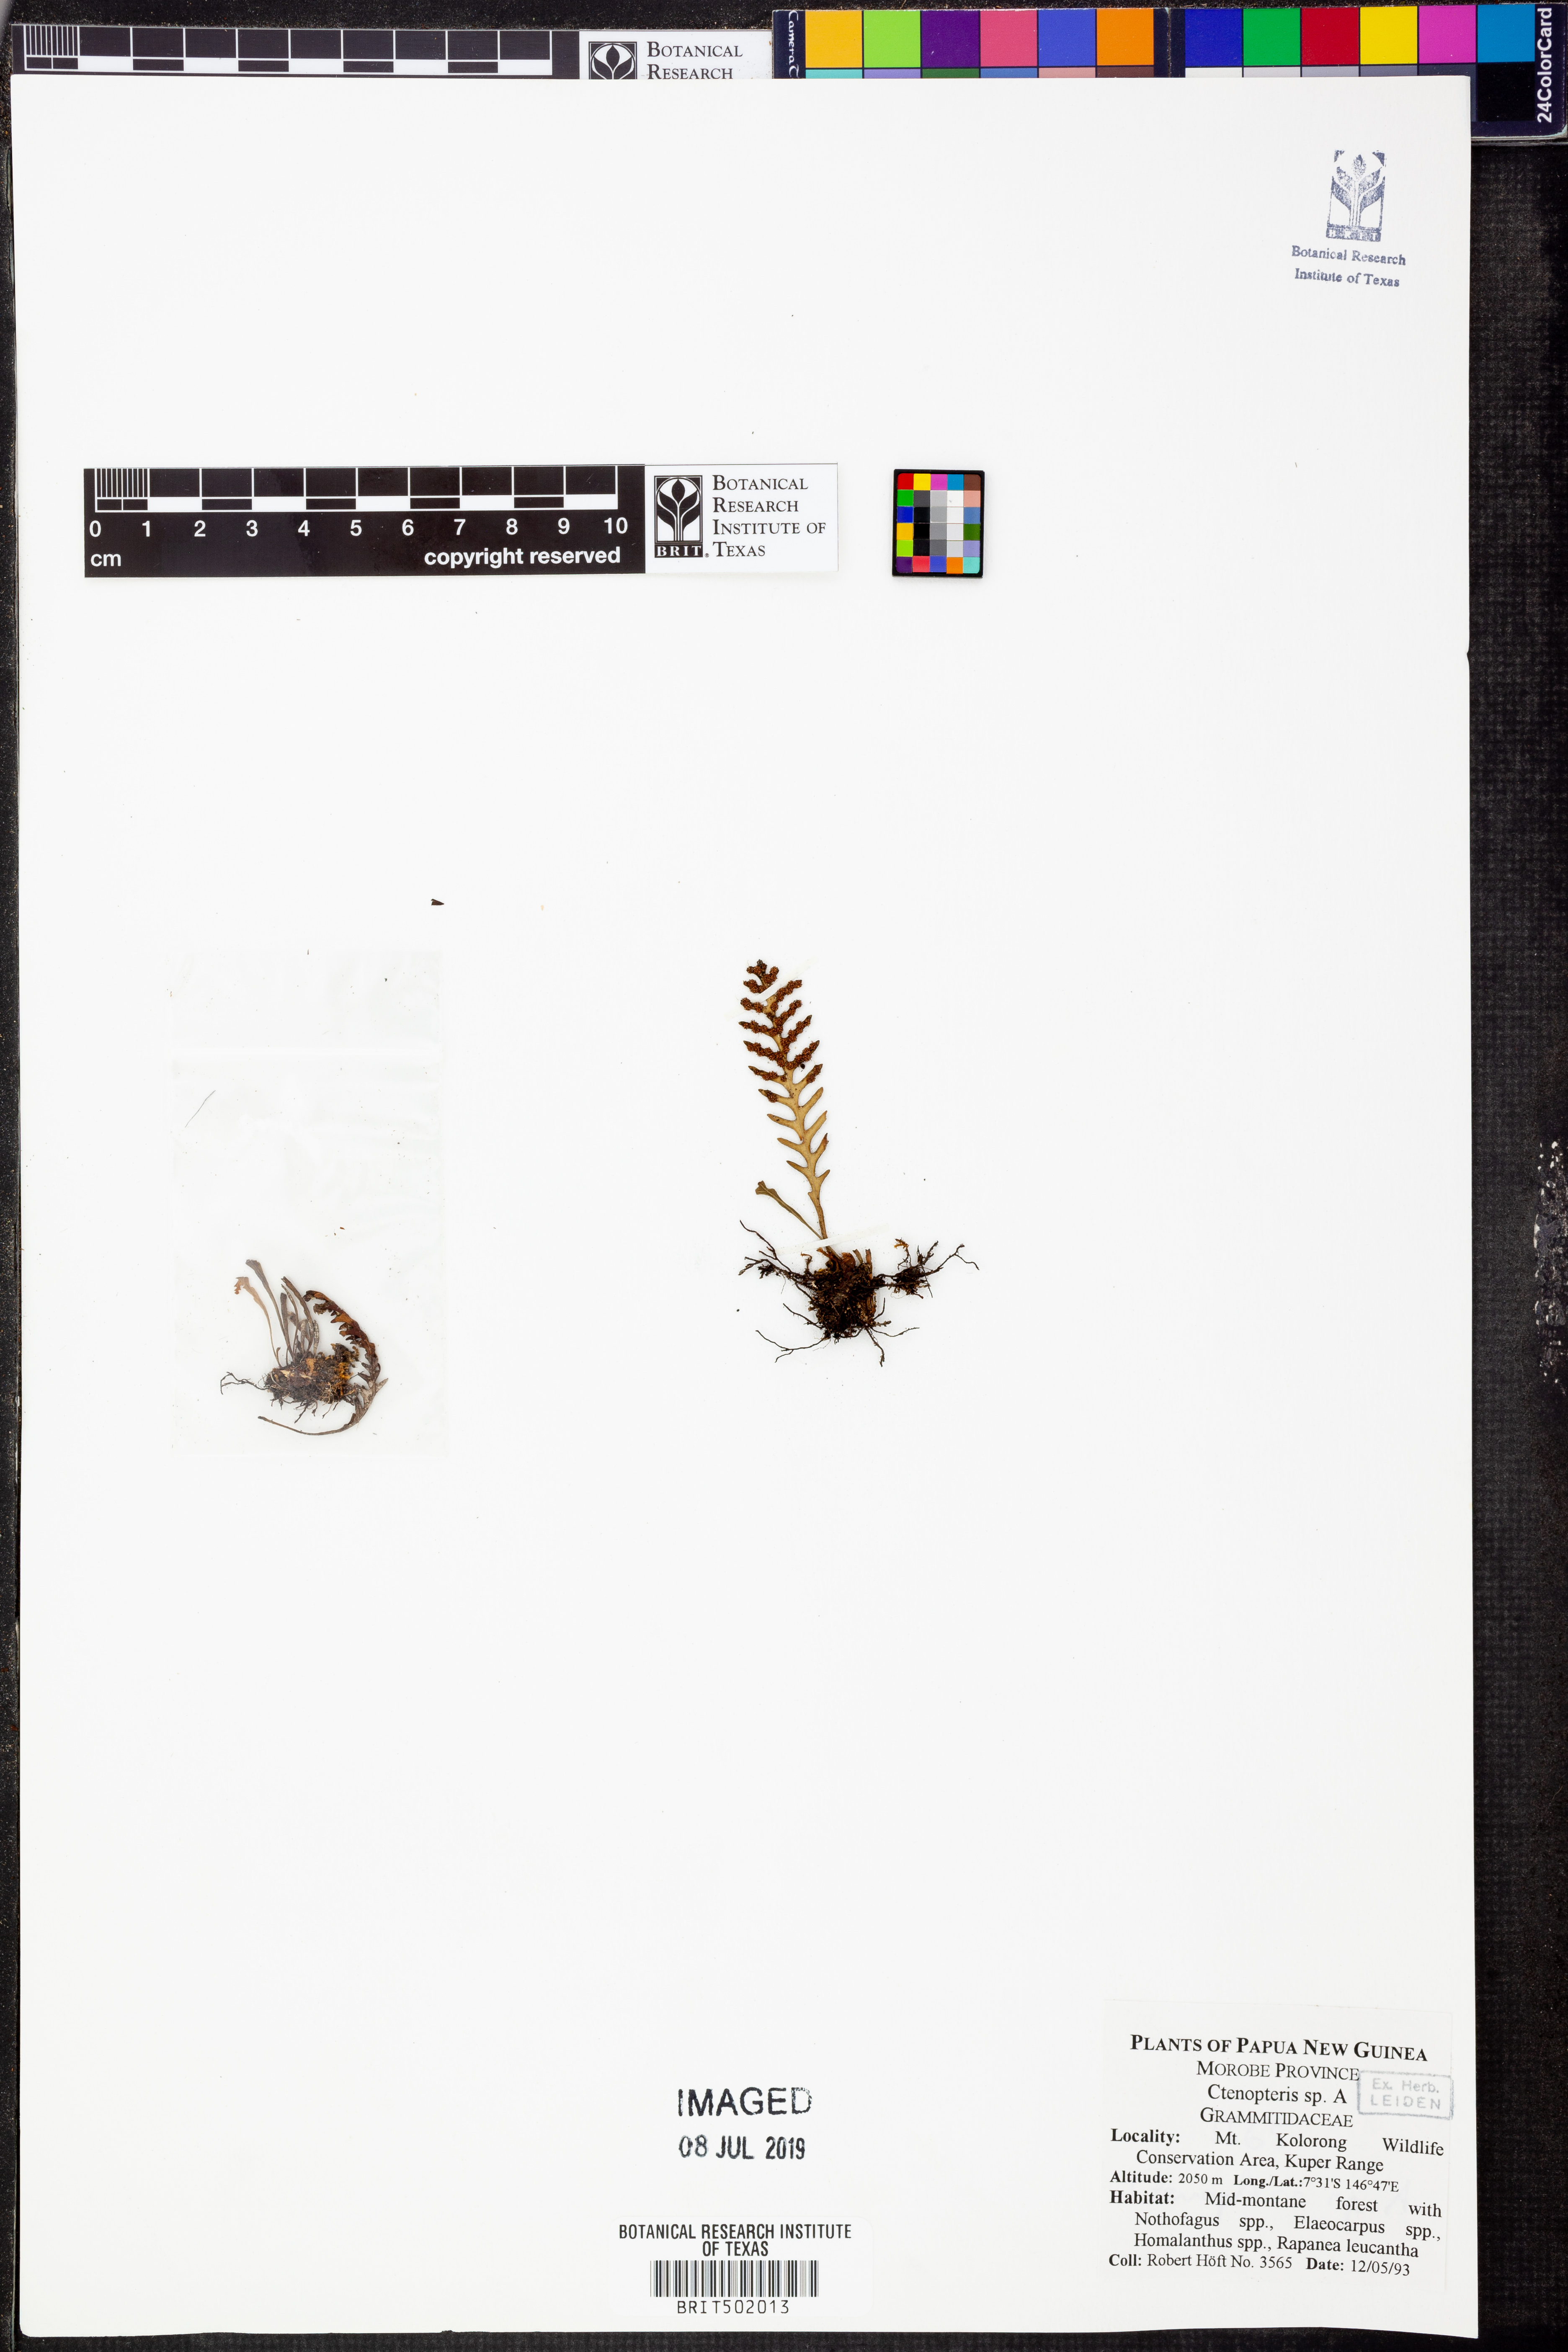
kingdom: Plantae
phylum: Tracheophyta
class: Polypodiopsida
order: Polypodiales
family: Polypodiaceae
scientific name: Polypodiaceae
